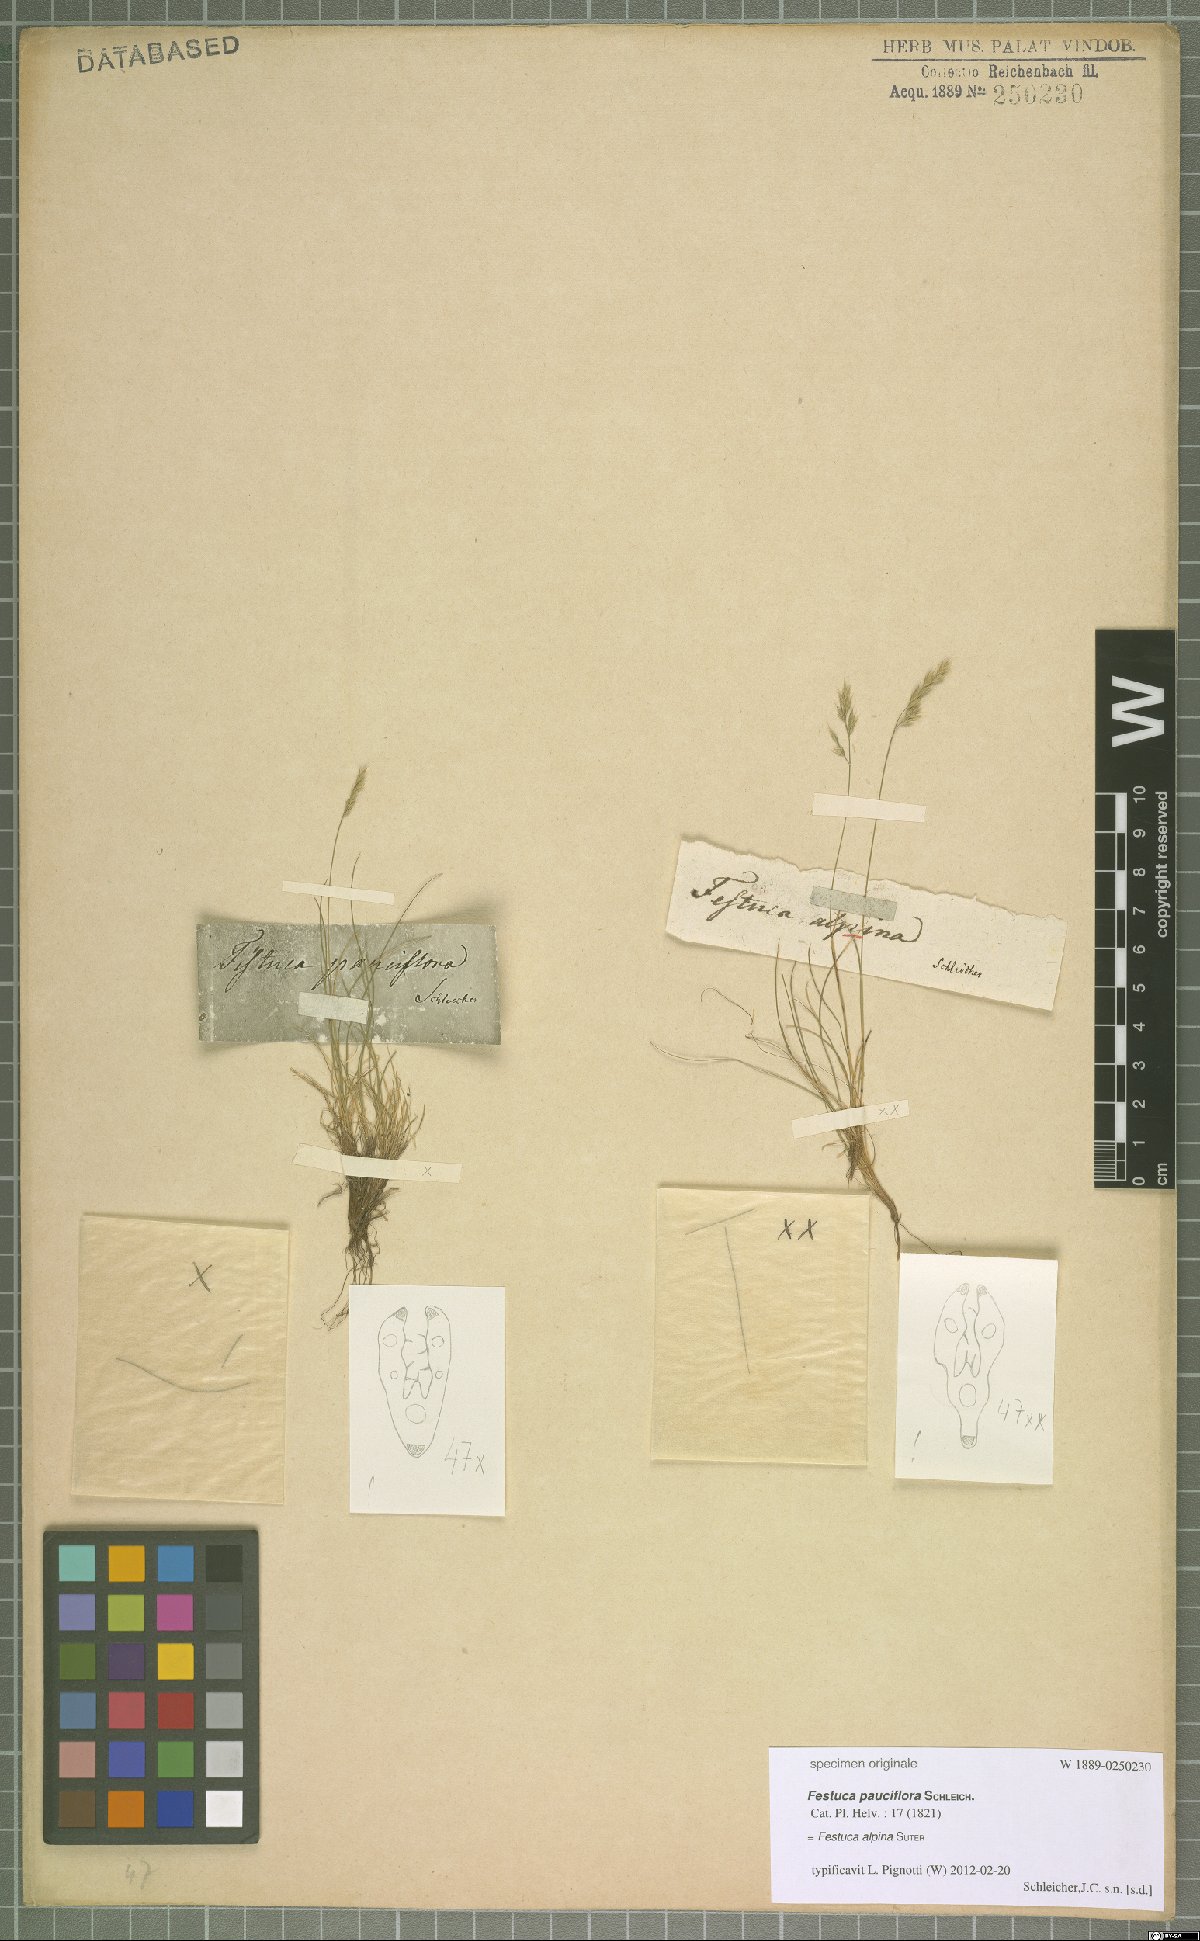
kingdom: Plantae
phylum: Tracheophyta
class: Liliopsida
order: Poales
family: Poaceae
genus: Festuca
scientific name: Festuca alpina
